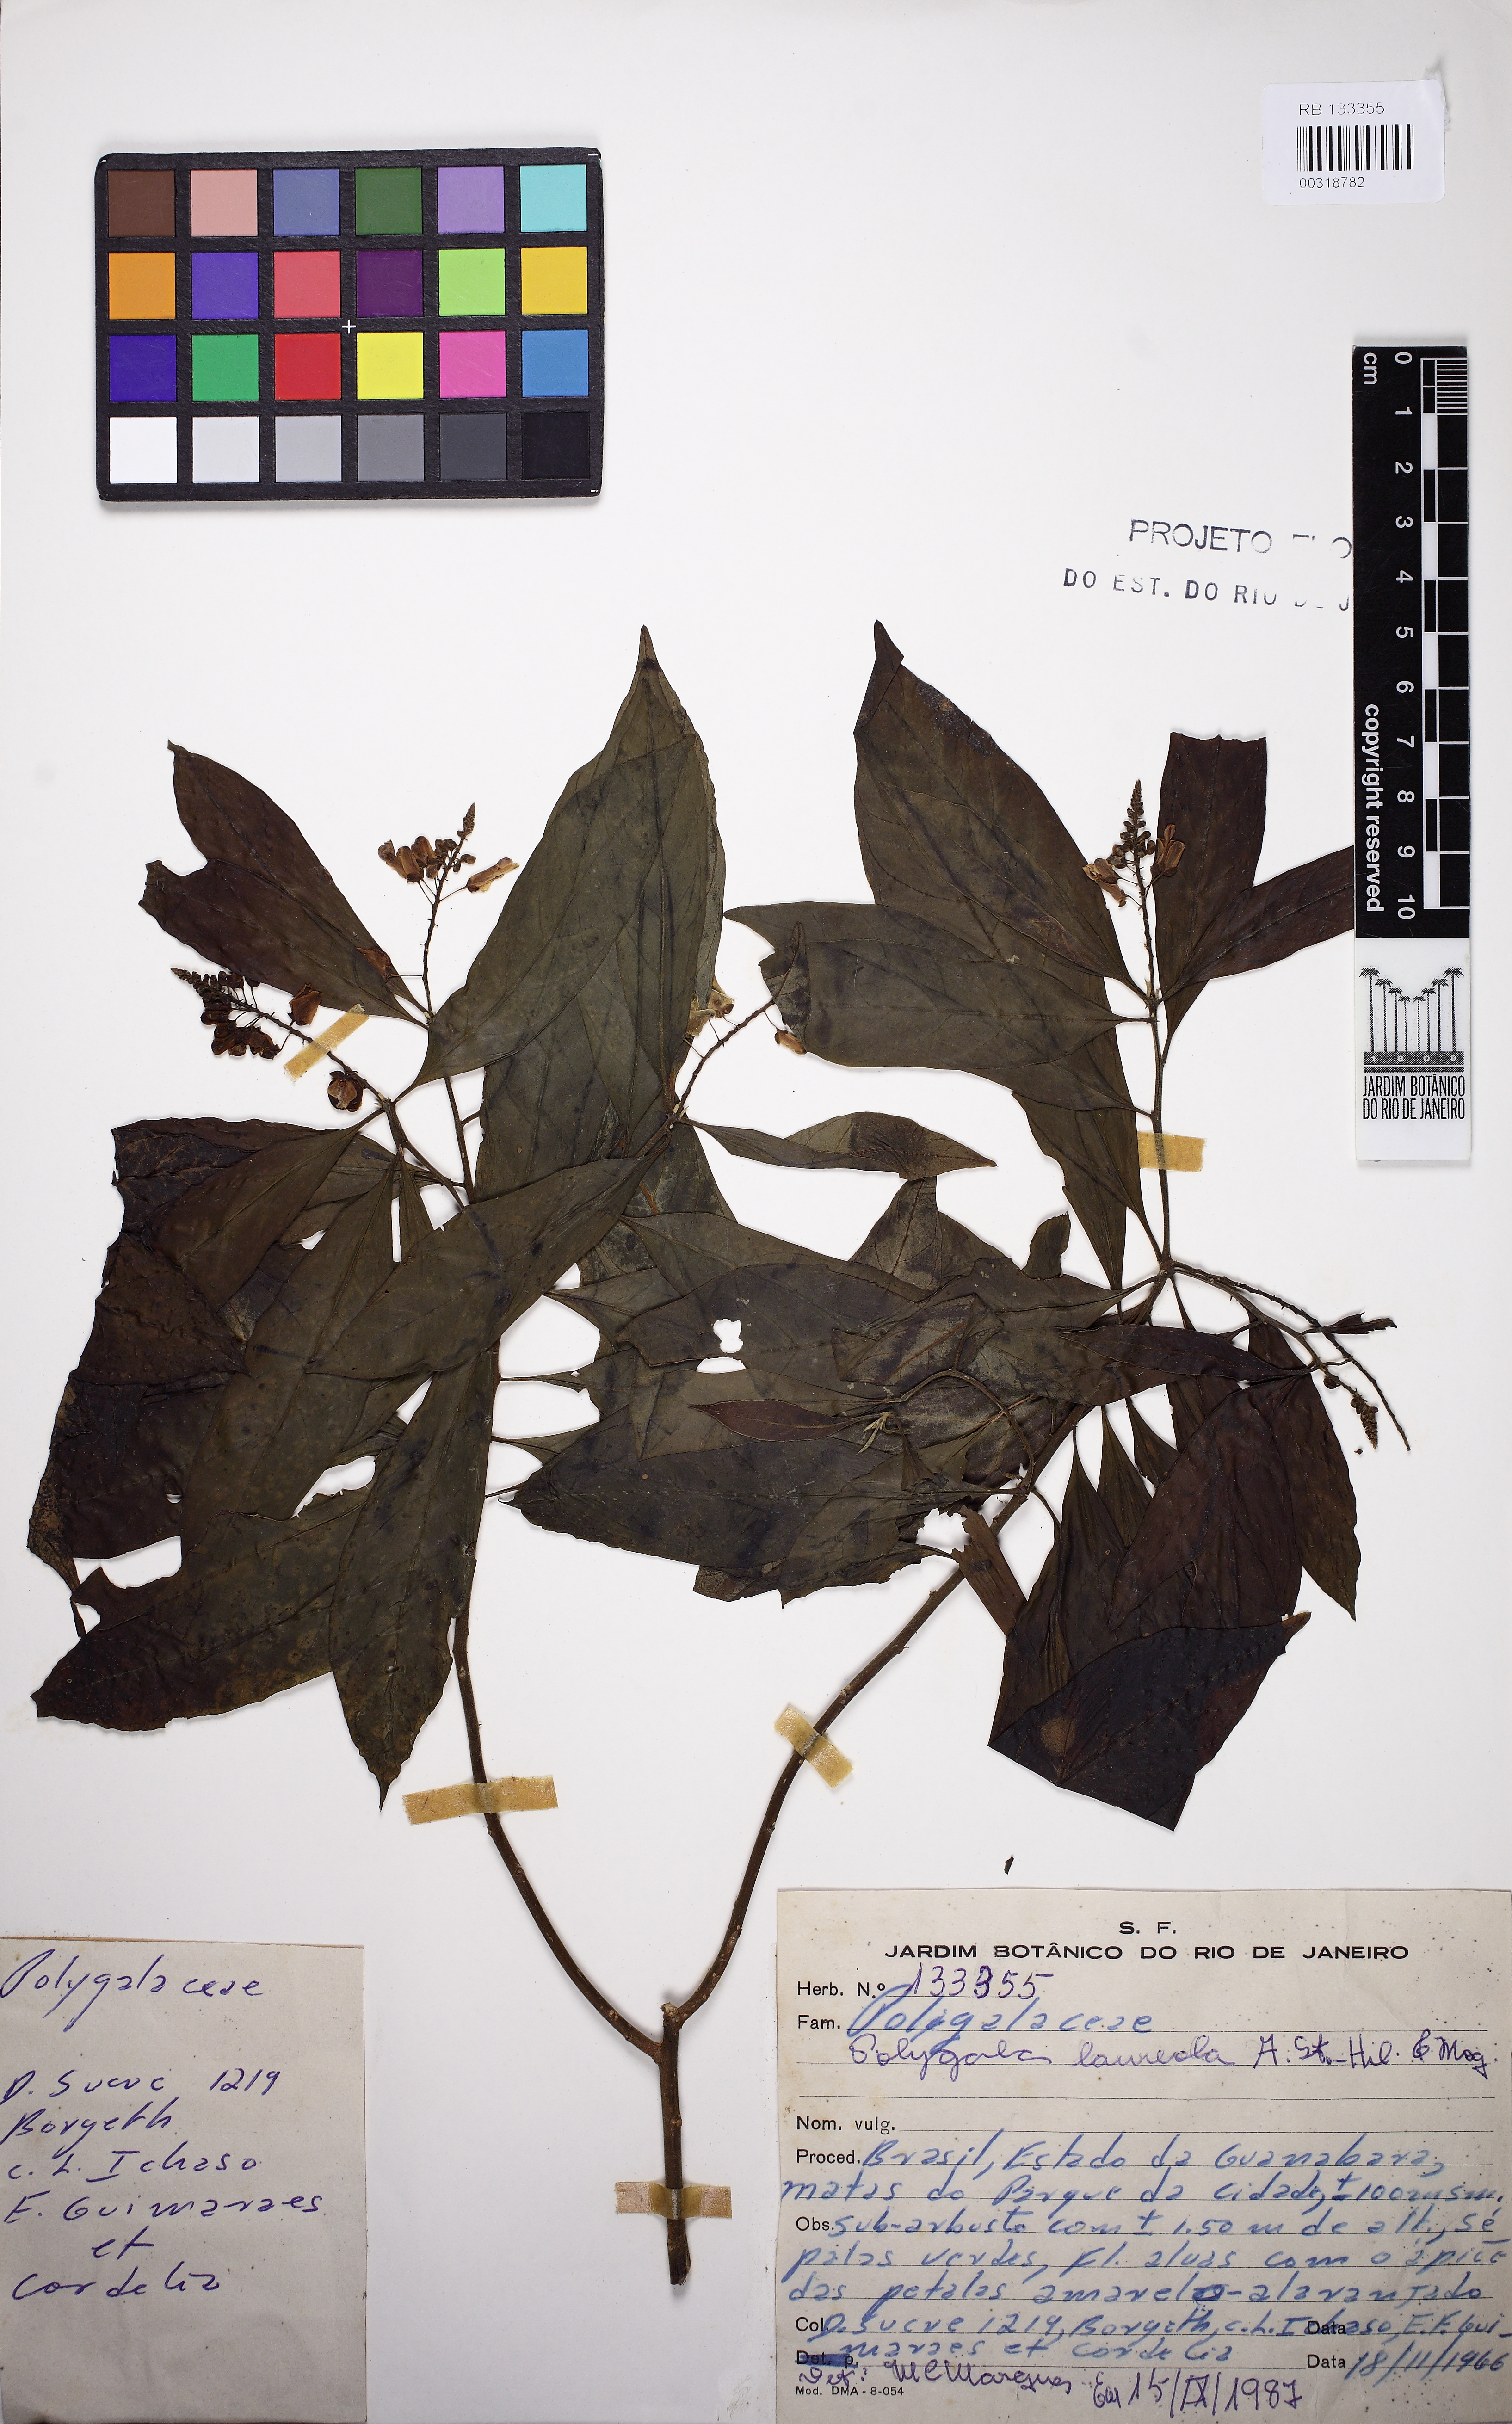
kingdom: Plantae
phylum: Tracheophyta
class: Magnoliopsida
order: Fabales
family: Polygalaceae
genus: Caamembeca
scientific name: Caamembeca salicifolia
